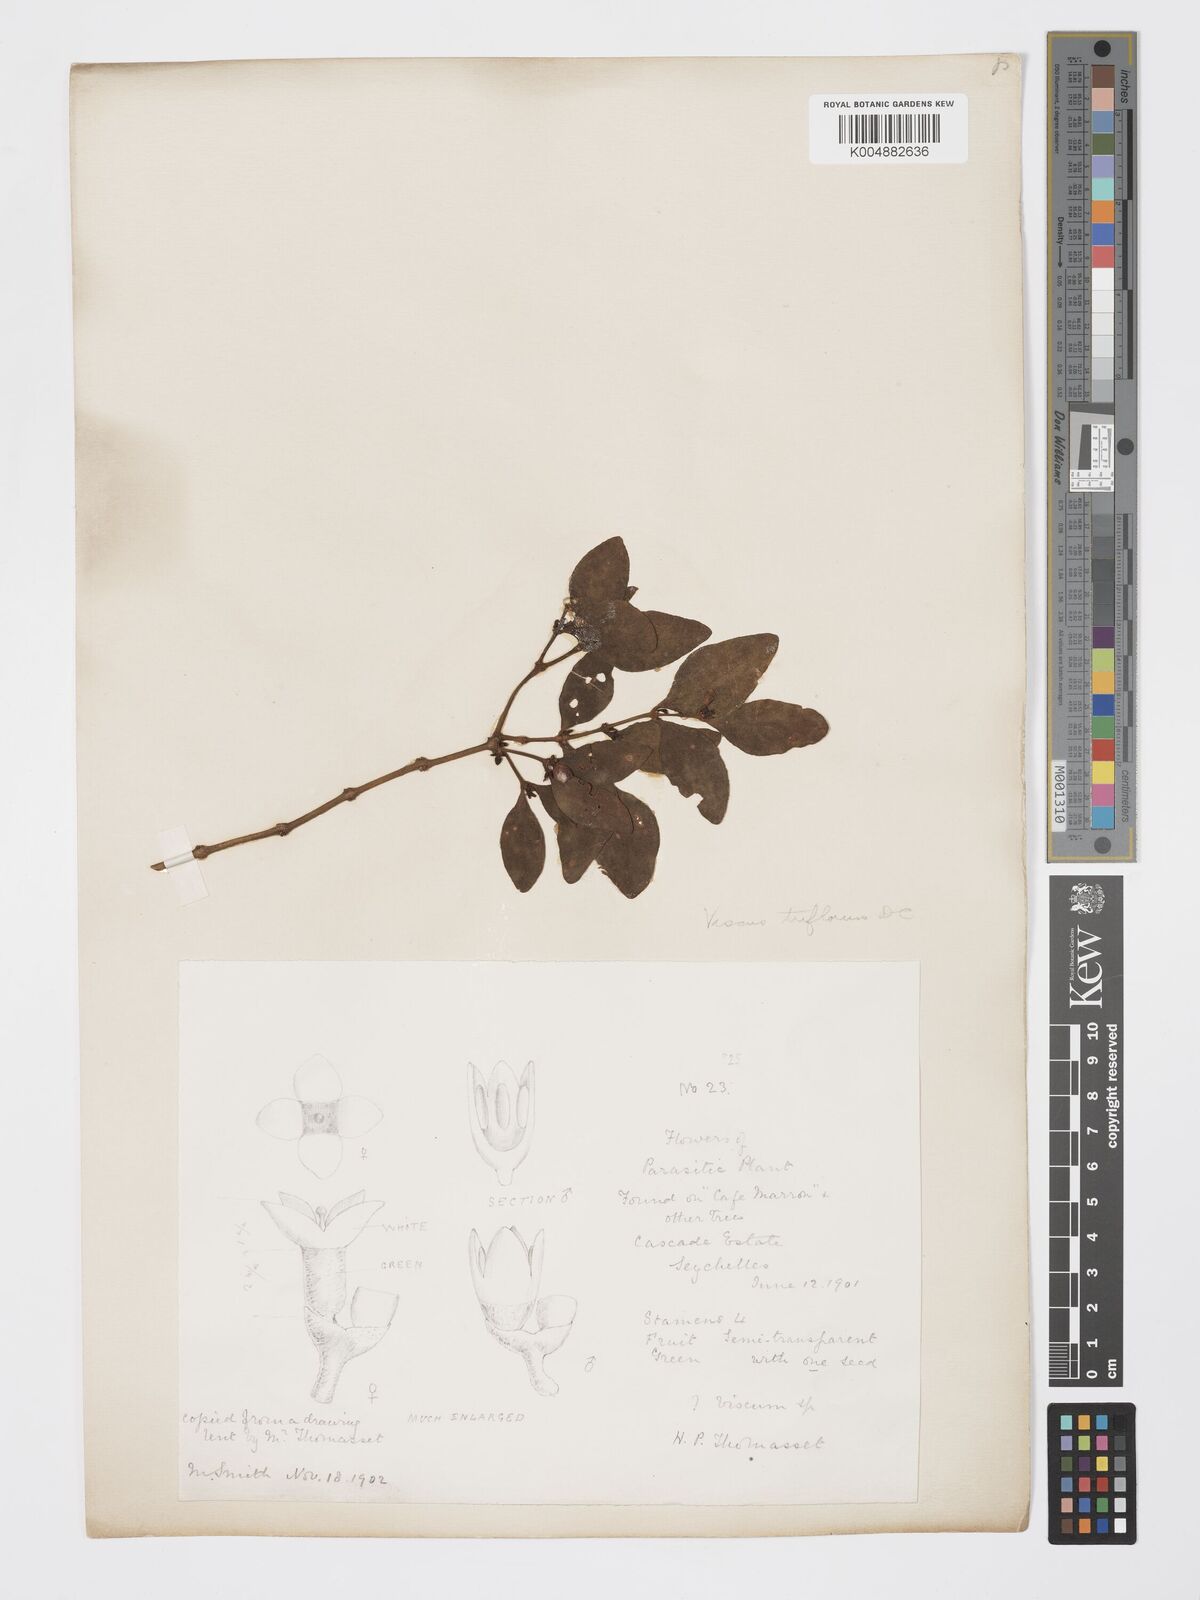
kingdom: Plantae
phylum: Tracheophyta
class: Magnoliopsida
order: Santalales
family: Viscaceae
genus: Viscum
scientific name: Viscum triflorum
